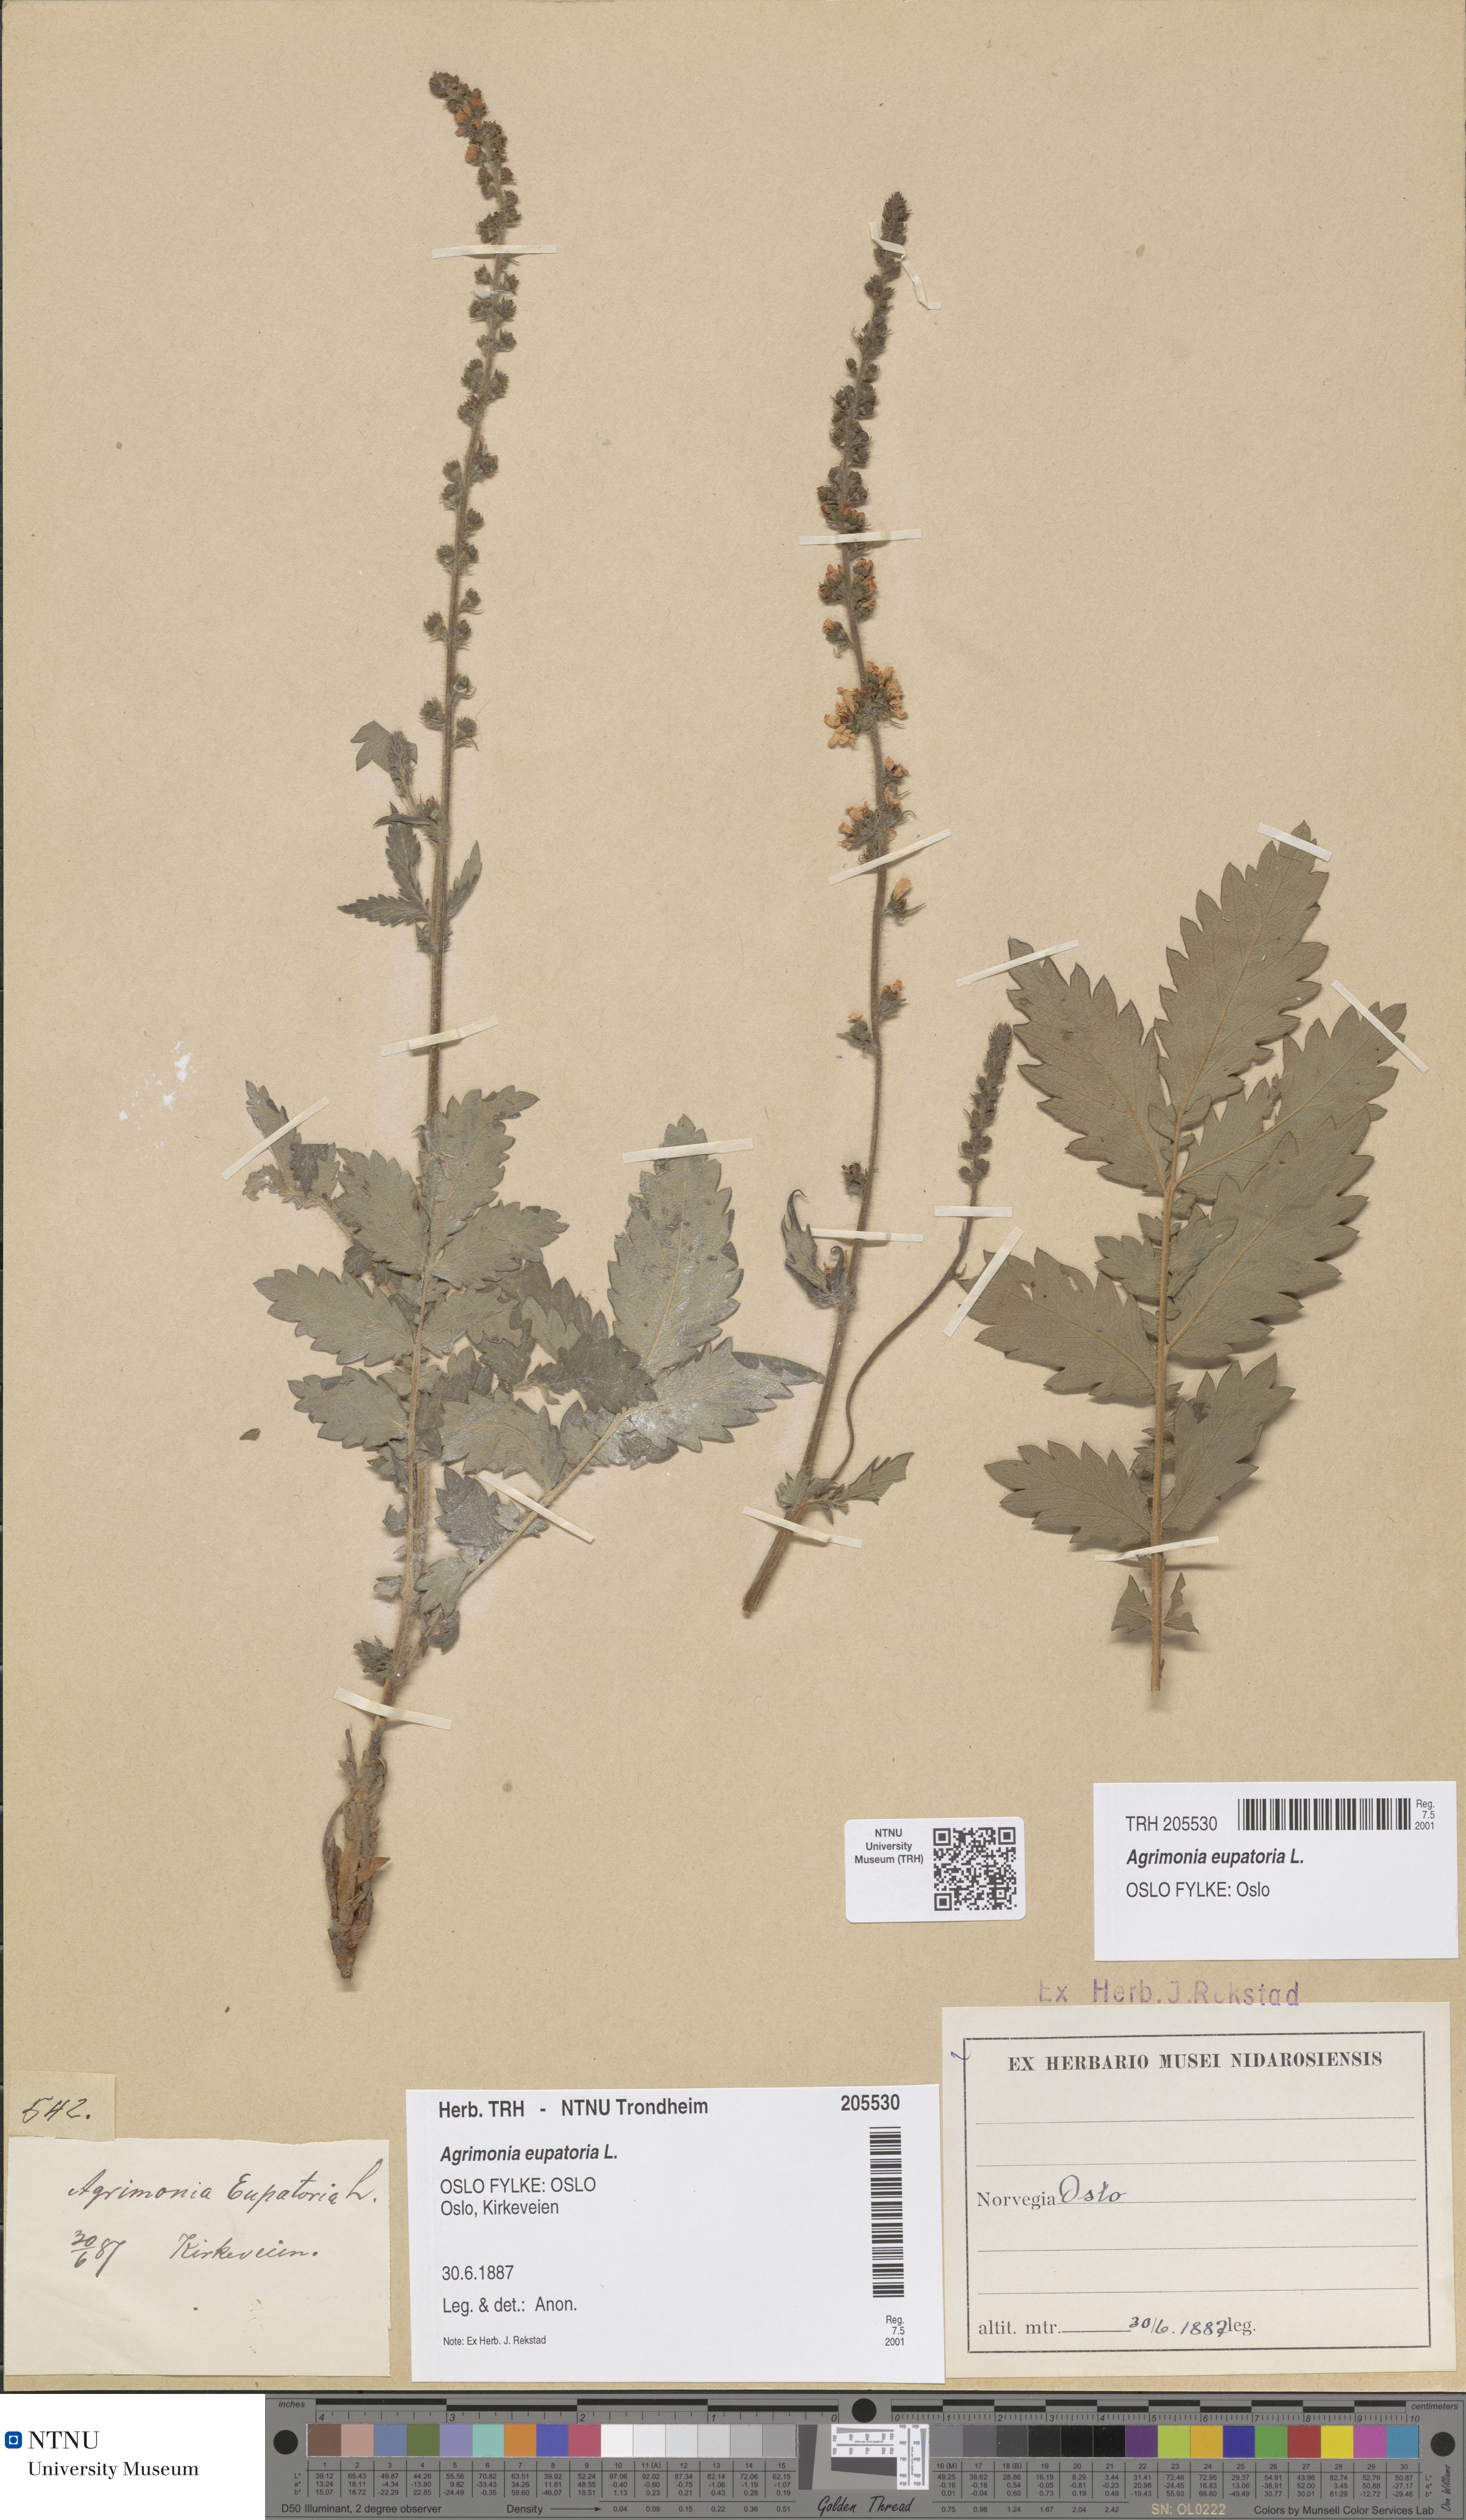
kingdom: Plantae
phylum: Tracheophyta
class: Magnoliopsida
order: Rosales
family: Rosaceae
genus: Agrimonia
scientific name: Agrimonia eupatoria
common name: Agrimony
